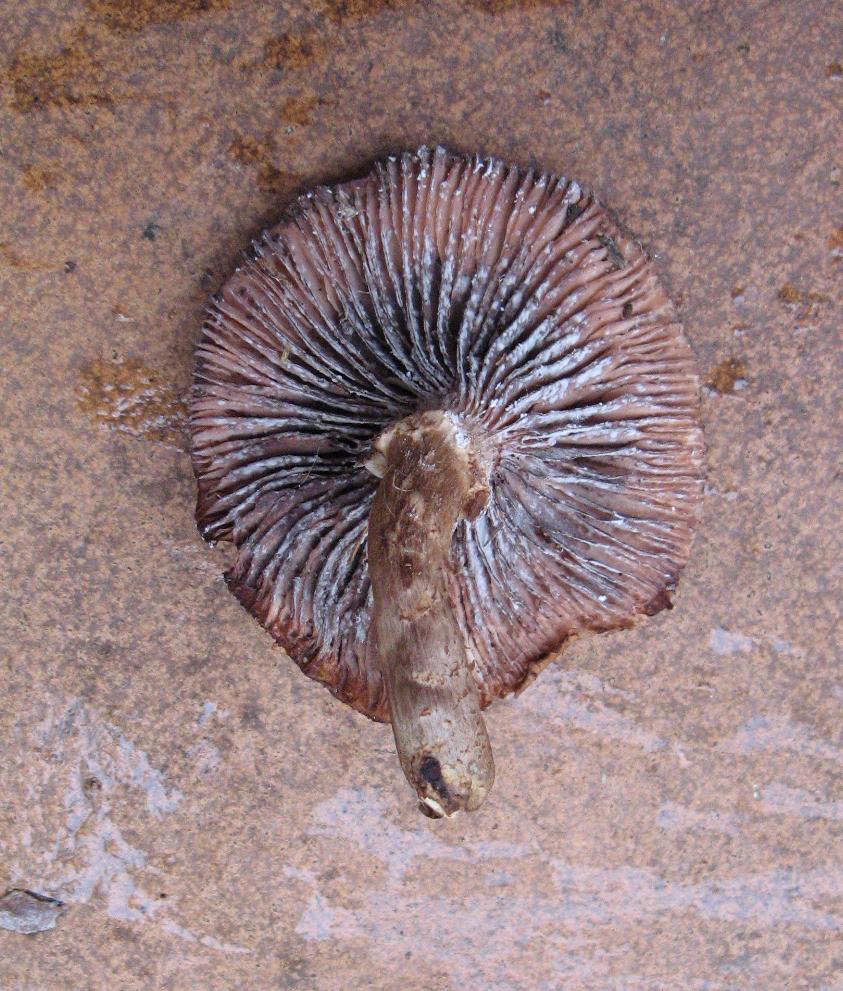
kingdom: Fungi
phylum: Basidiomycota
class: Agaricomycetes
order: Agaricales
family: Physalacriaceae
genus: Armillaria
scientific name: Armillaria
